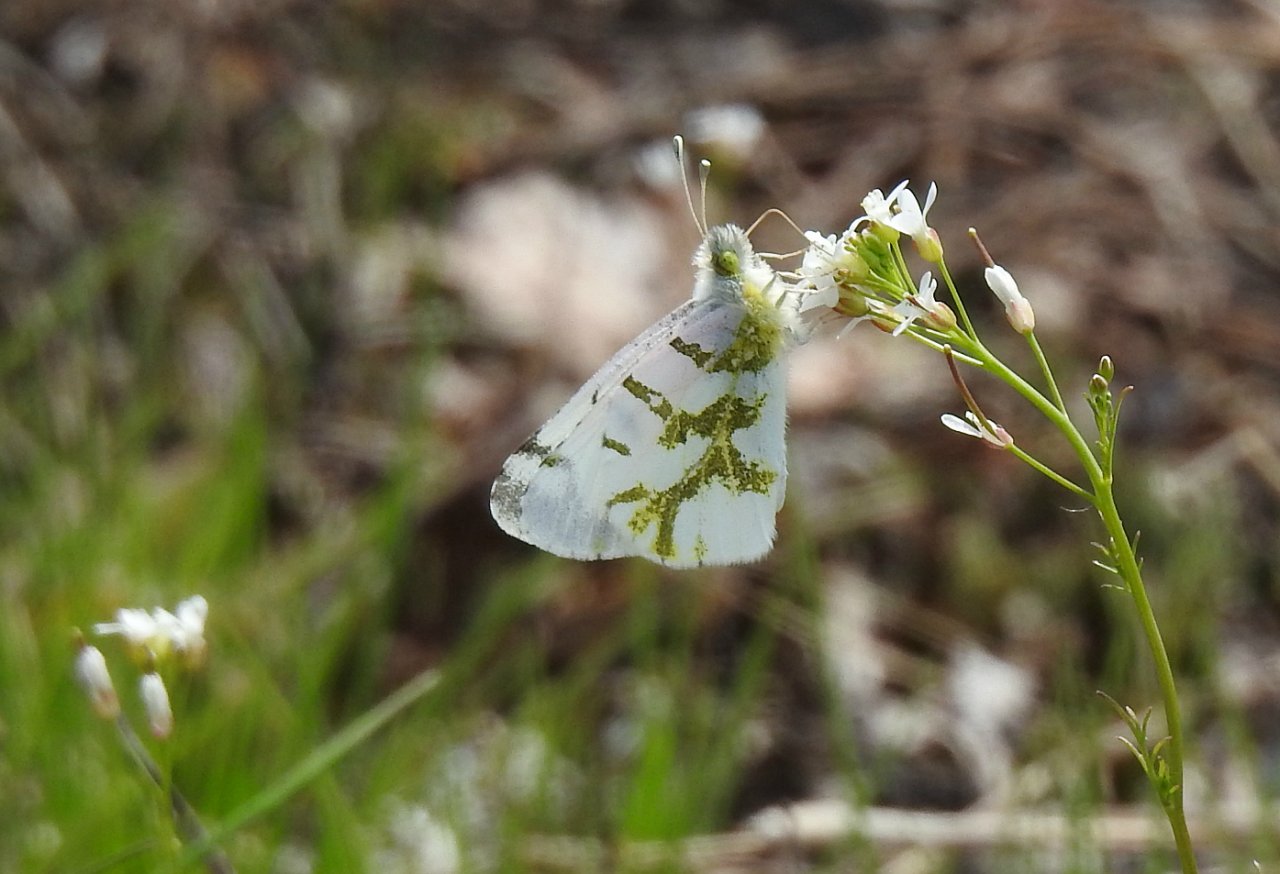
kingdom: Animalia
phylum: Arthropoda
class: Insecta
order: Lepidoptera
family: Pieridae
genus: Euchloe
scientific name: Euchloe olympia
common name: Olympia Marble
